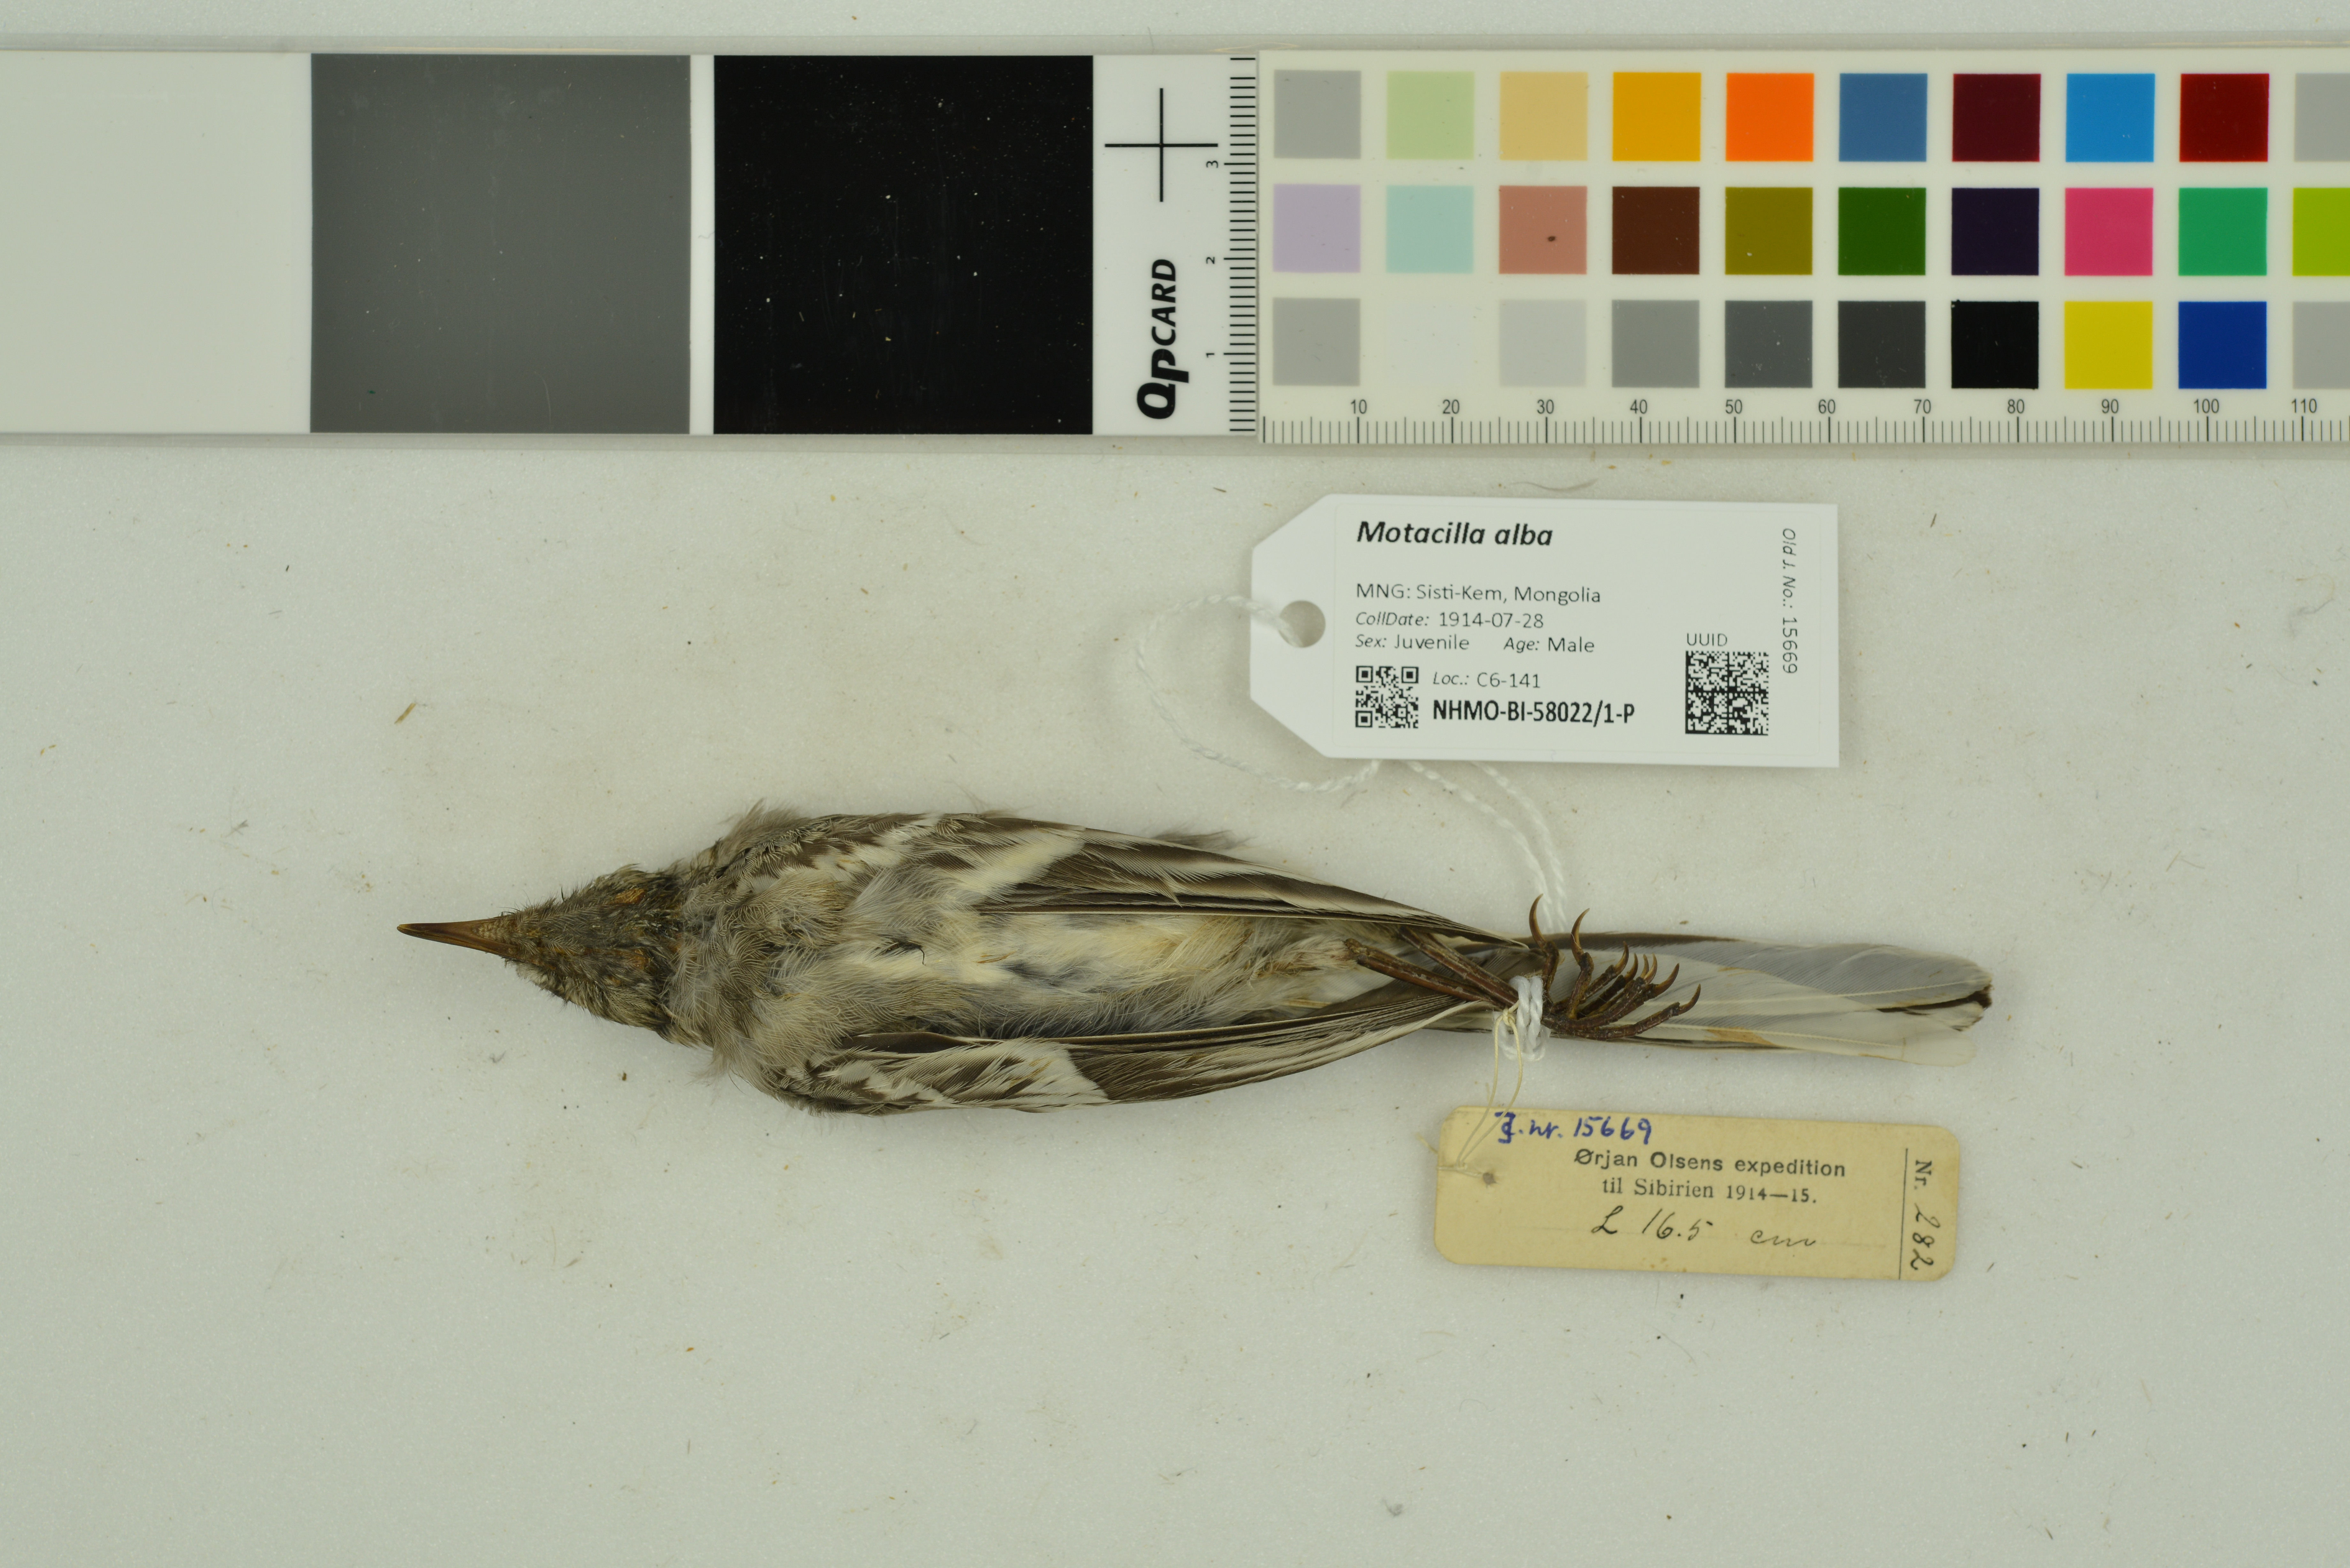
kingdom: Animalia
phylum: Chordata
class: Aves
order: Passeriformes
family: Motacillidae
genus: Motacilla
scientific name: Motacilla alba
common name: White wagtail
